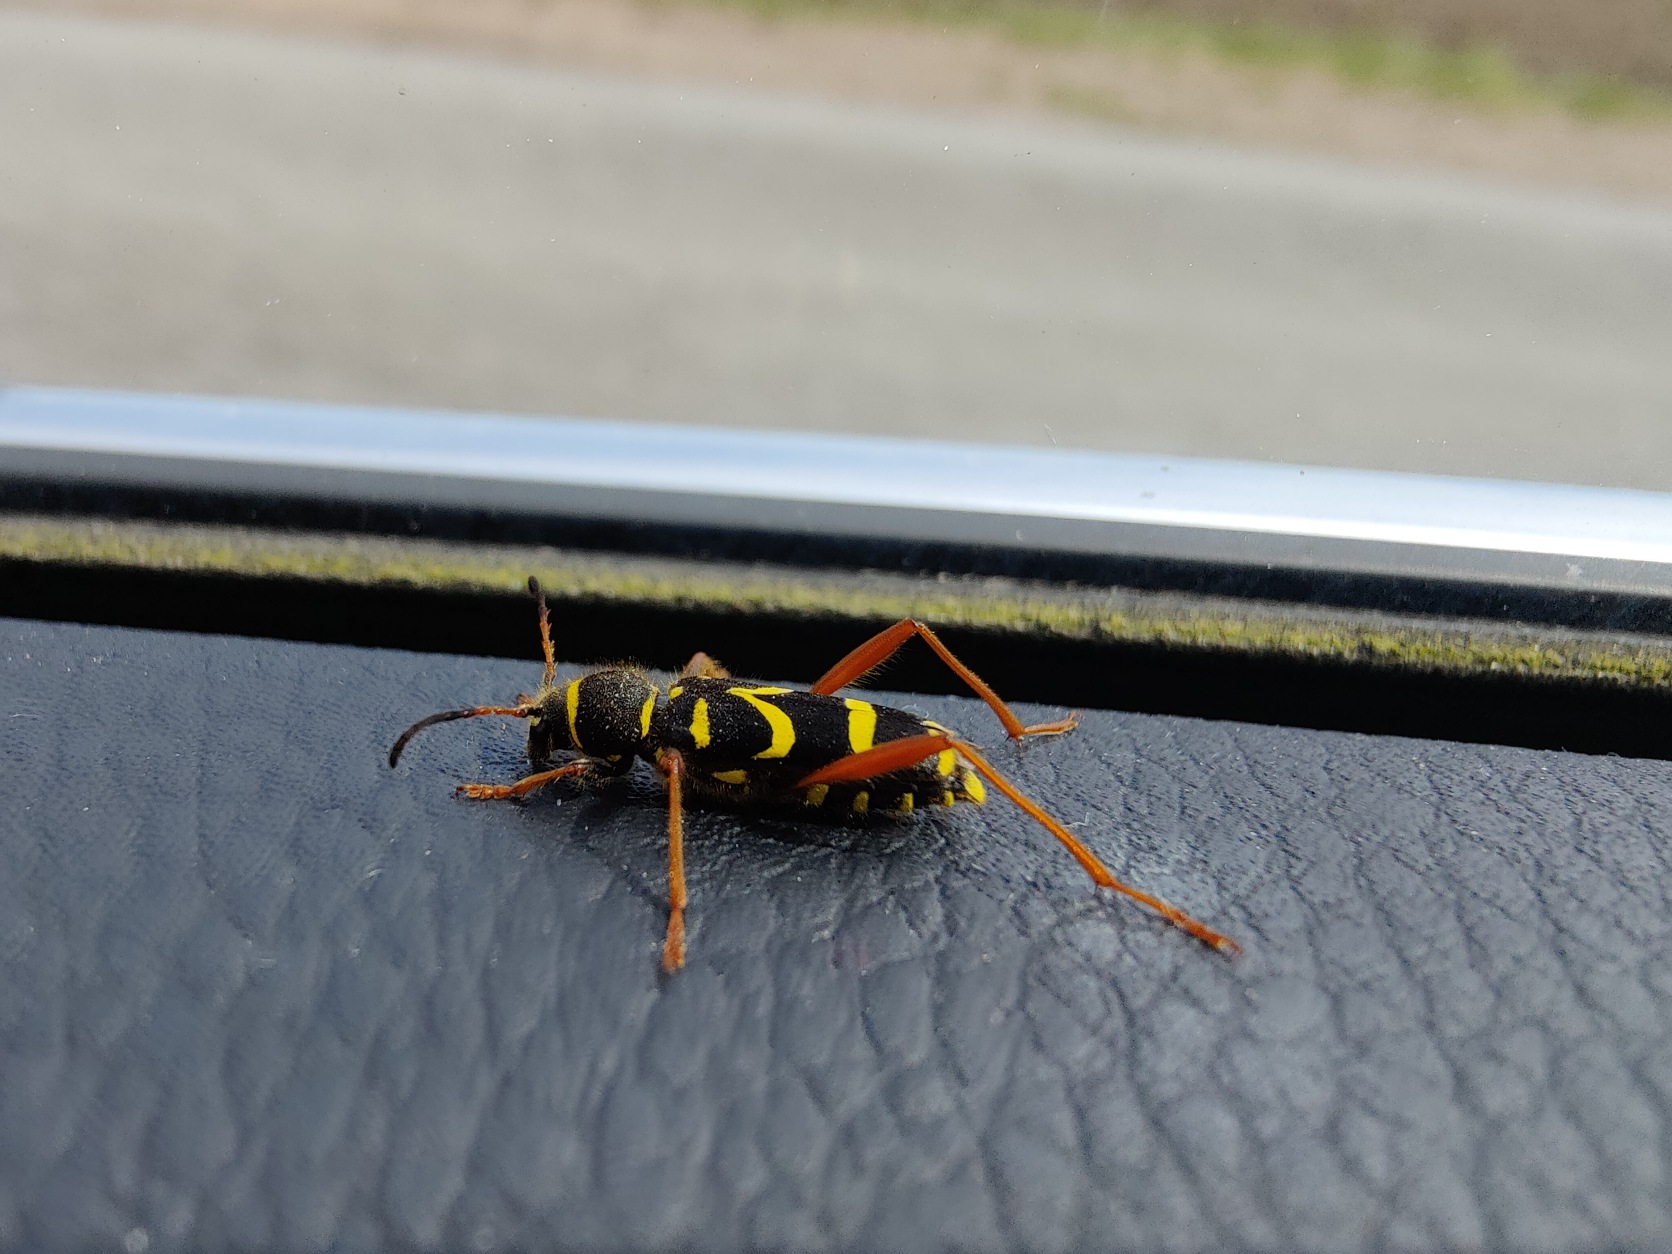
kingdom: Animalia
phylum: Arthropoda
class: Insecta
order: Coleoptera
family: Cerambycidae
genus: Clytus
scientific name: Clytus arietis
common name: Lille hvepsebuk
